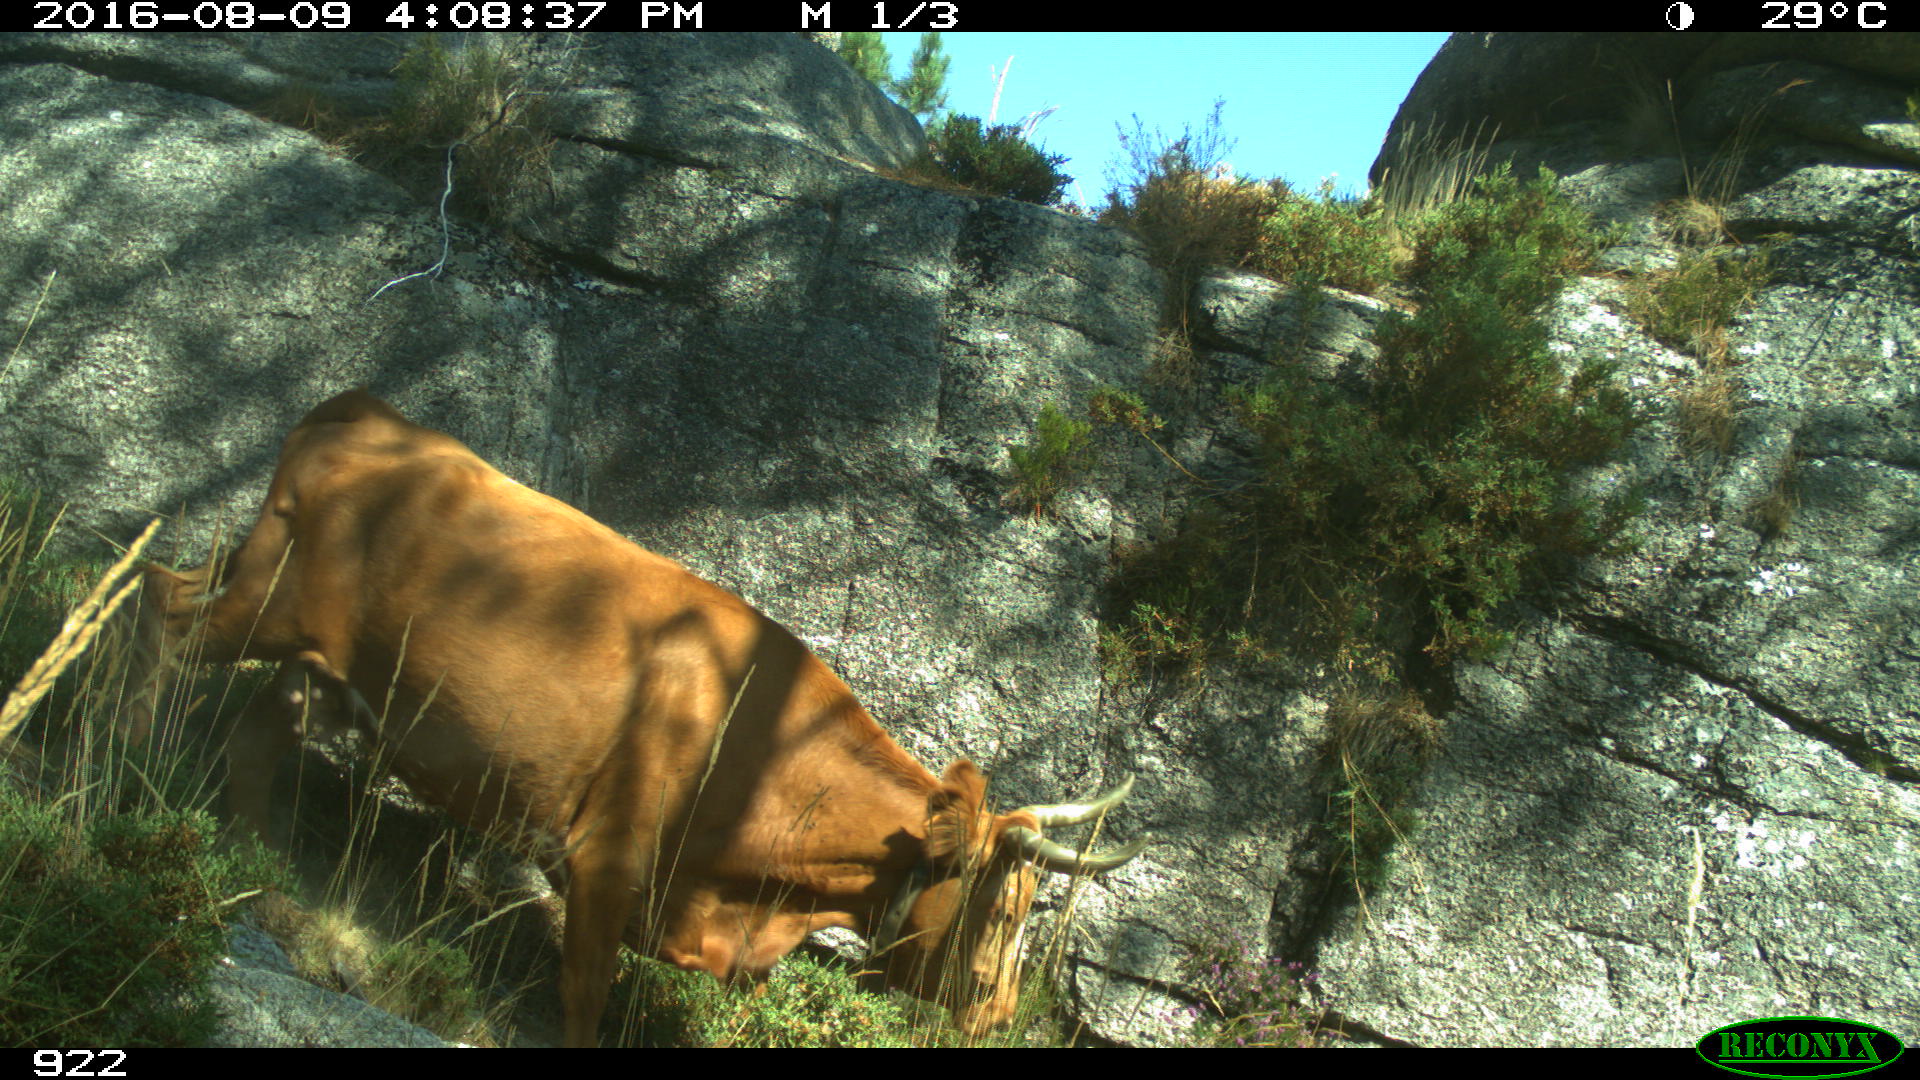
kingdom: Animalia
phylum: Chordata
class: Mammalia
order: Artiodactyla
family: Bovidae
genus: Bos
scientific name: Bos taurus
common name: Domesticated cattle
